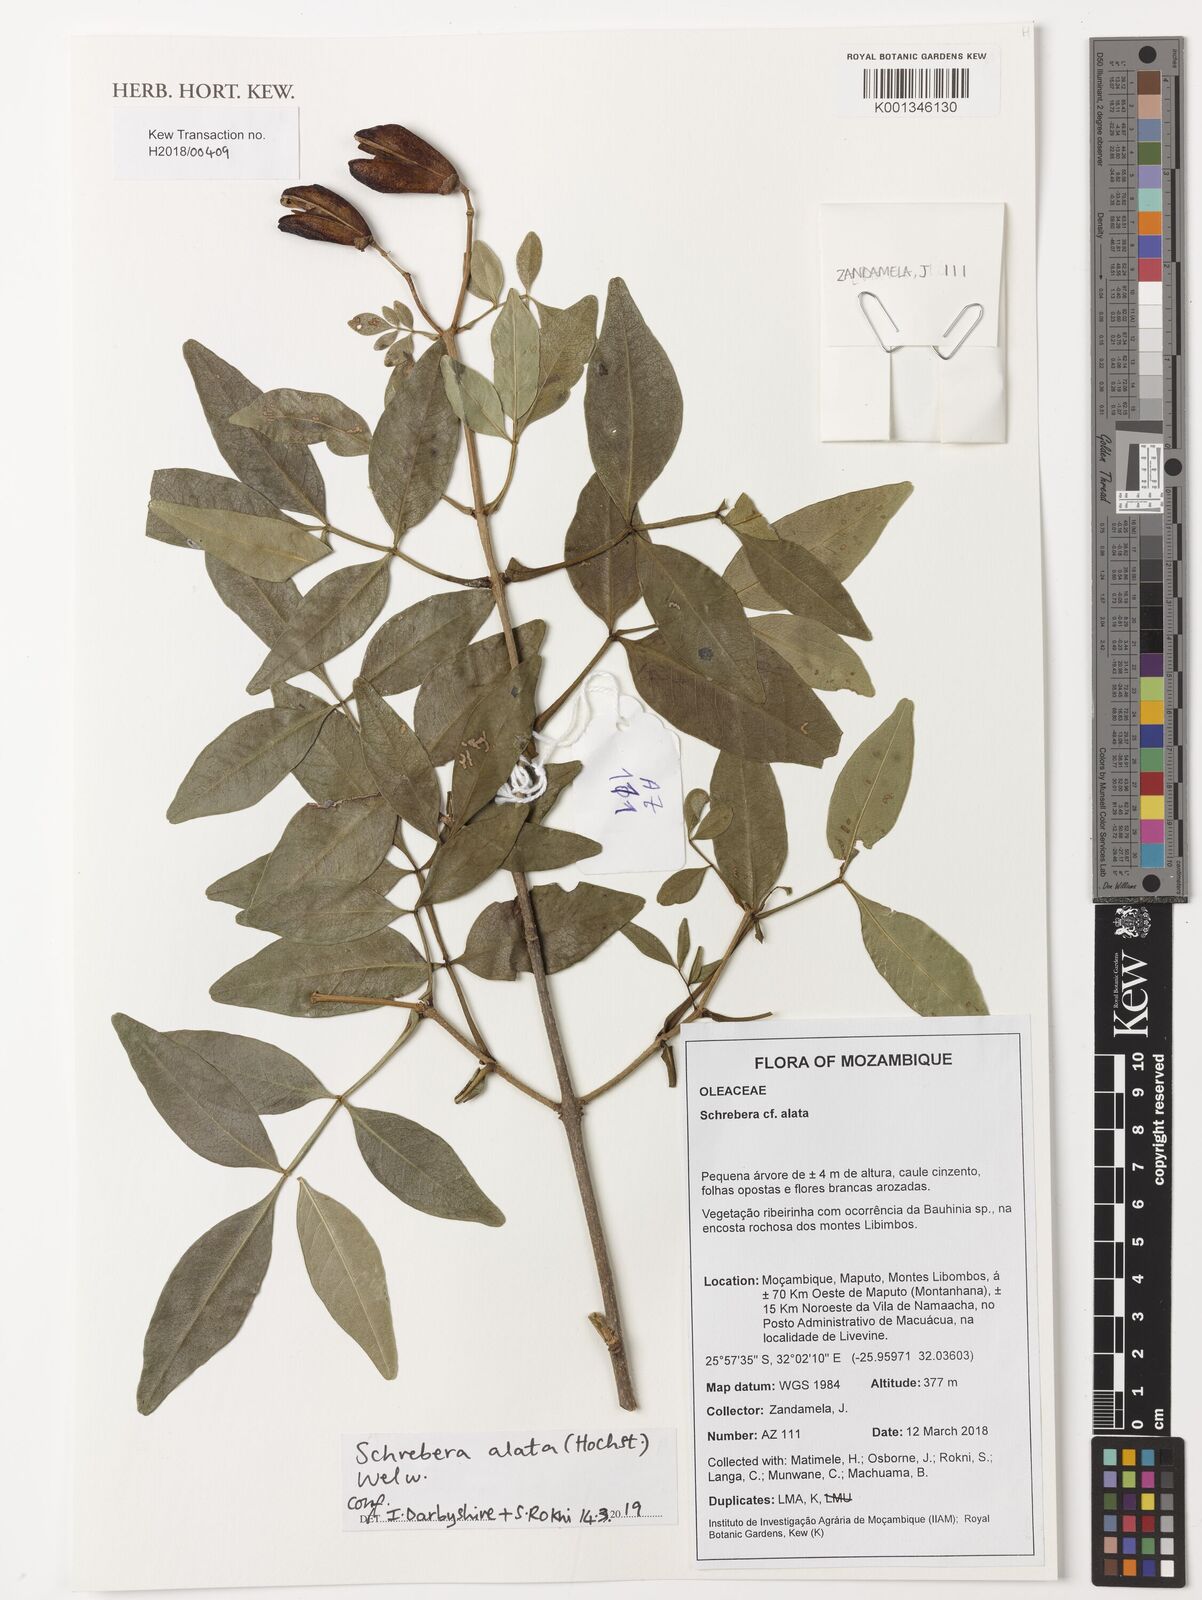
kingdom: Plantae
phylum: Tracheophyta
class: Magnoliopsida
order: Lamiales
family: Oleaceae
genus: Schrebera
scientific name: Schrebera alata
